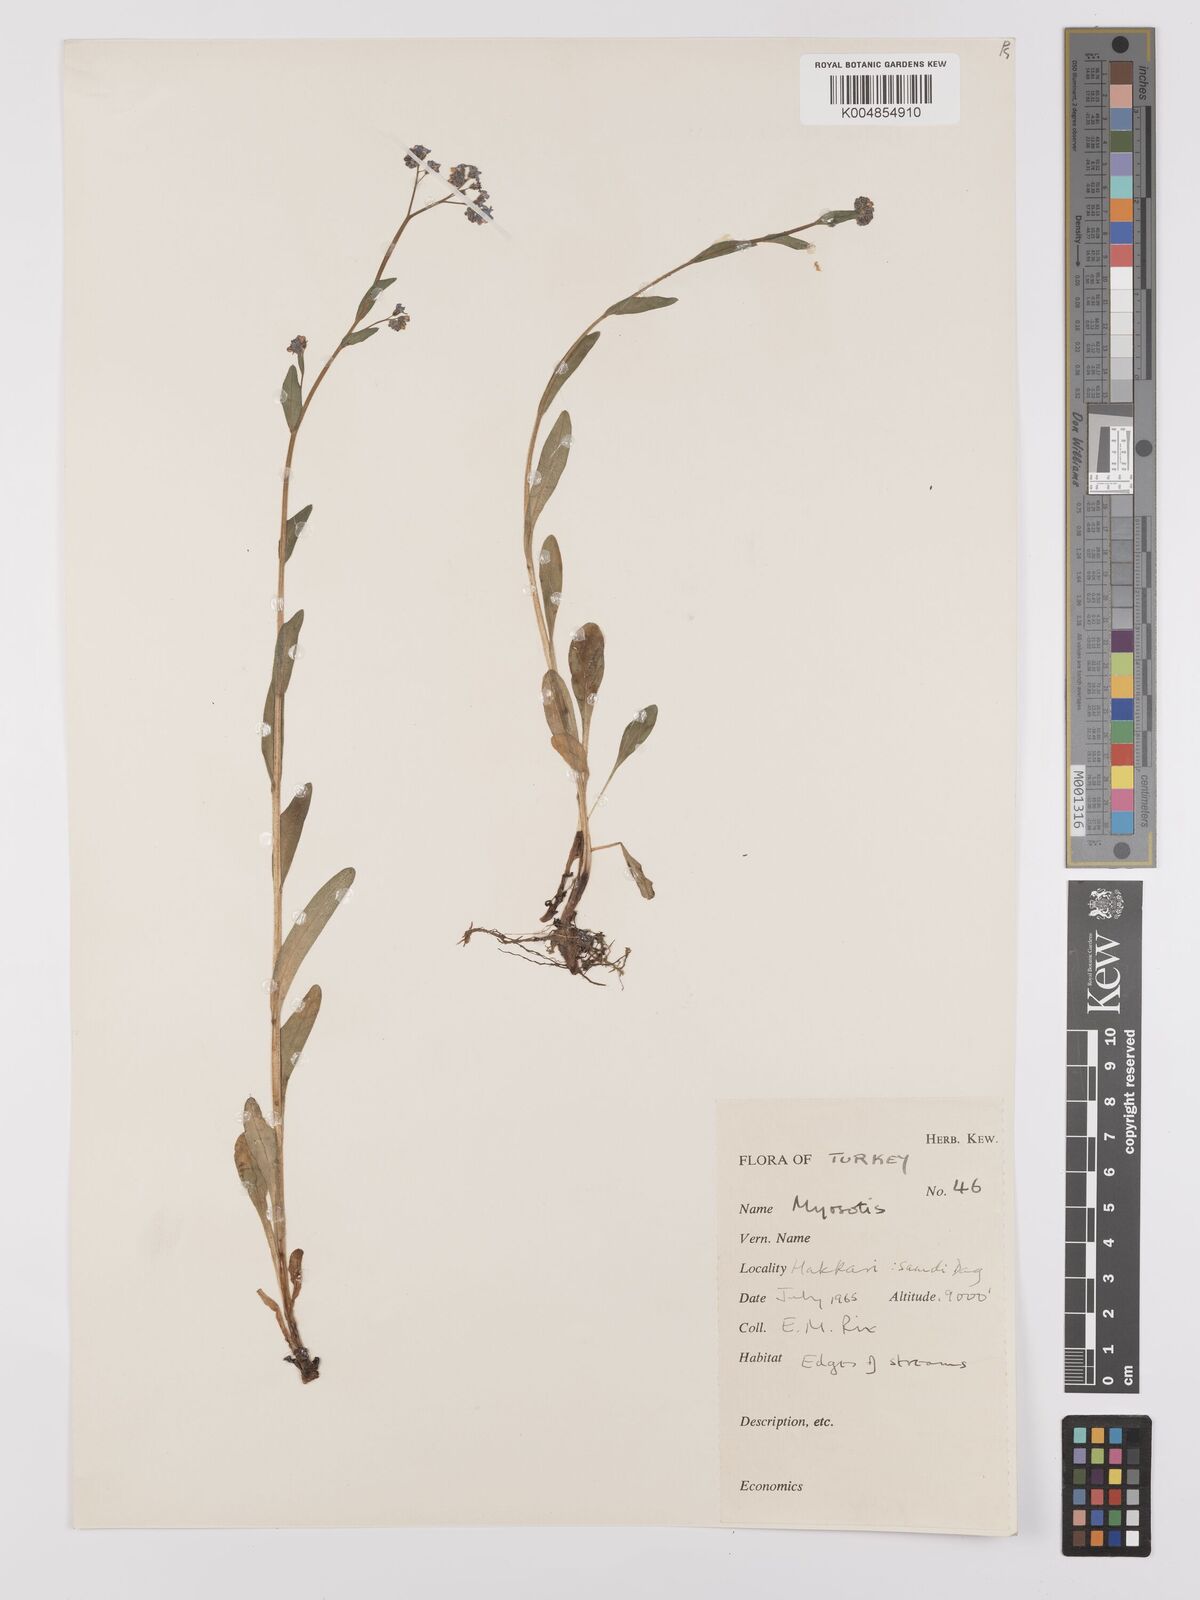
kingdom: Plantae
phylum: Tracheophyta
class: Magnoliopsida
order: Boraginales
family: Boraginaceae
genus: Myosotis
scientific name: Myosotis
